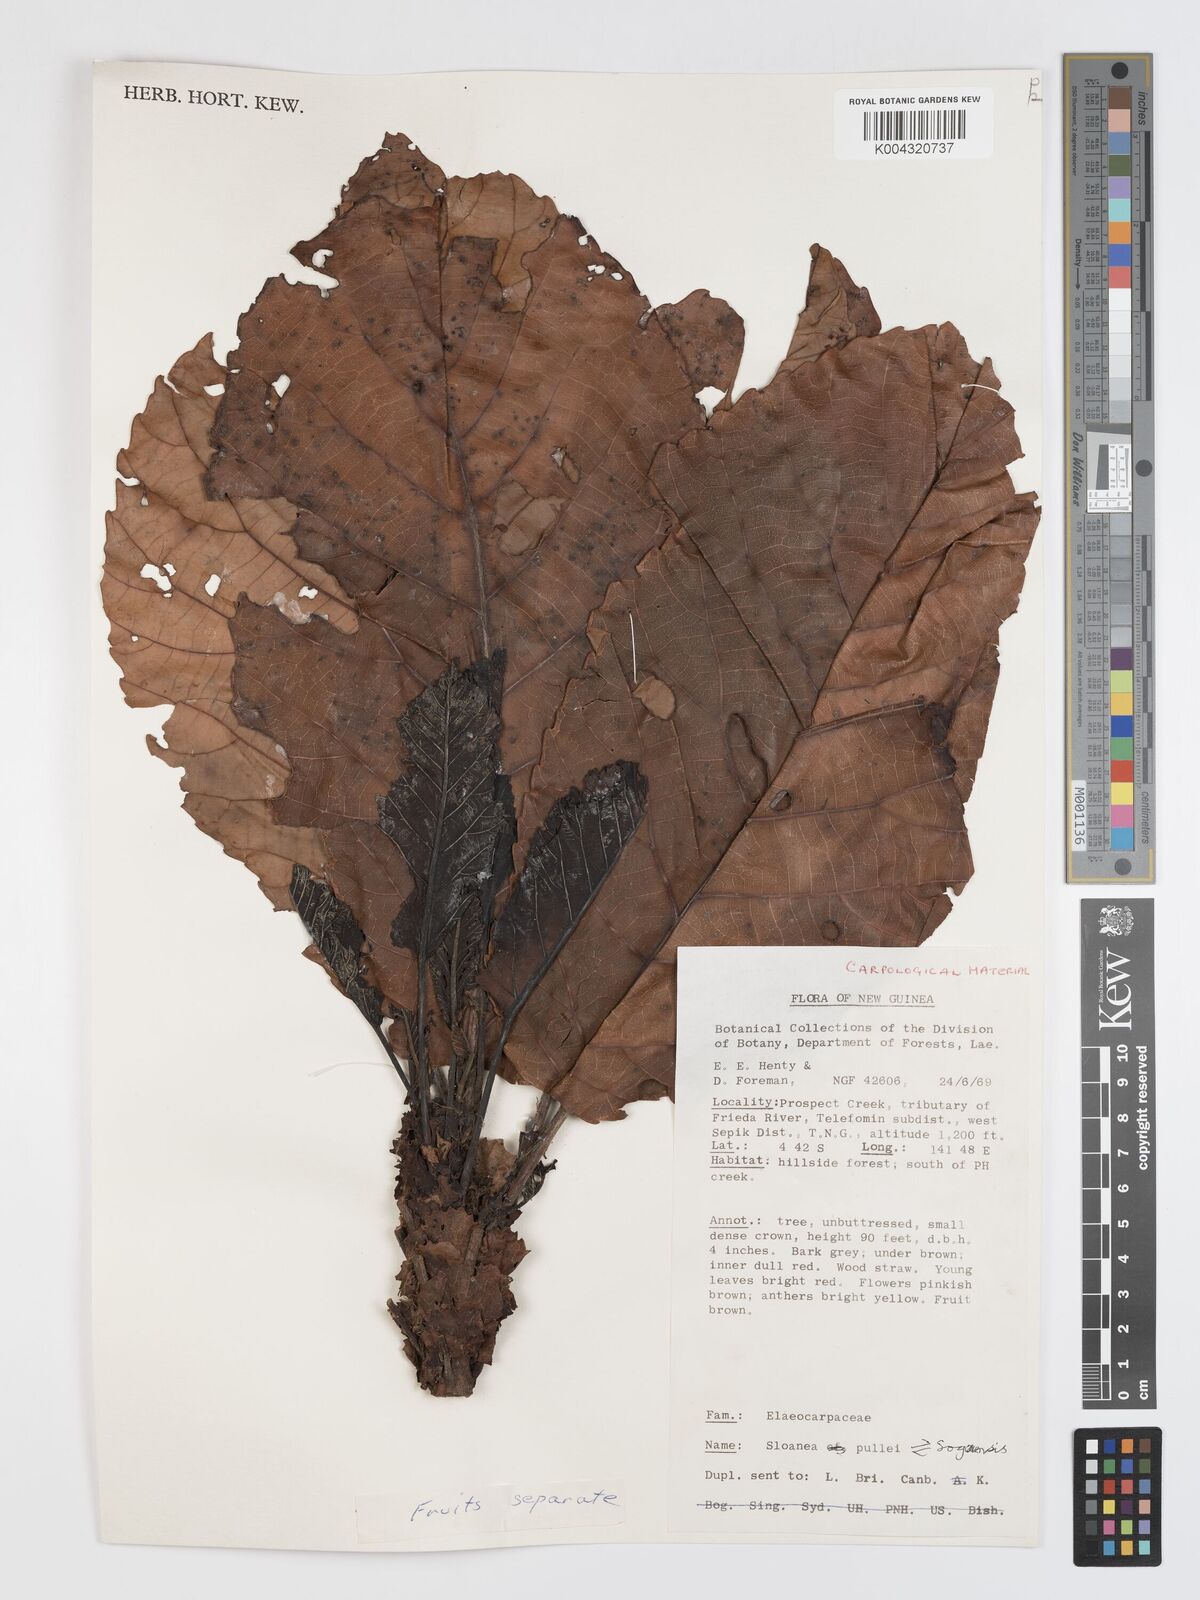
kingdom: Plantae
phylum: Tracheophyta
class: Magnoliopsida
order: Oxalidales
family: Elaeocarpaceae
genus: Sloanea
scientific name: Sloanea pullei
